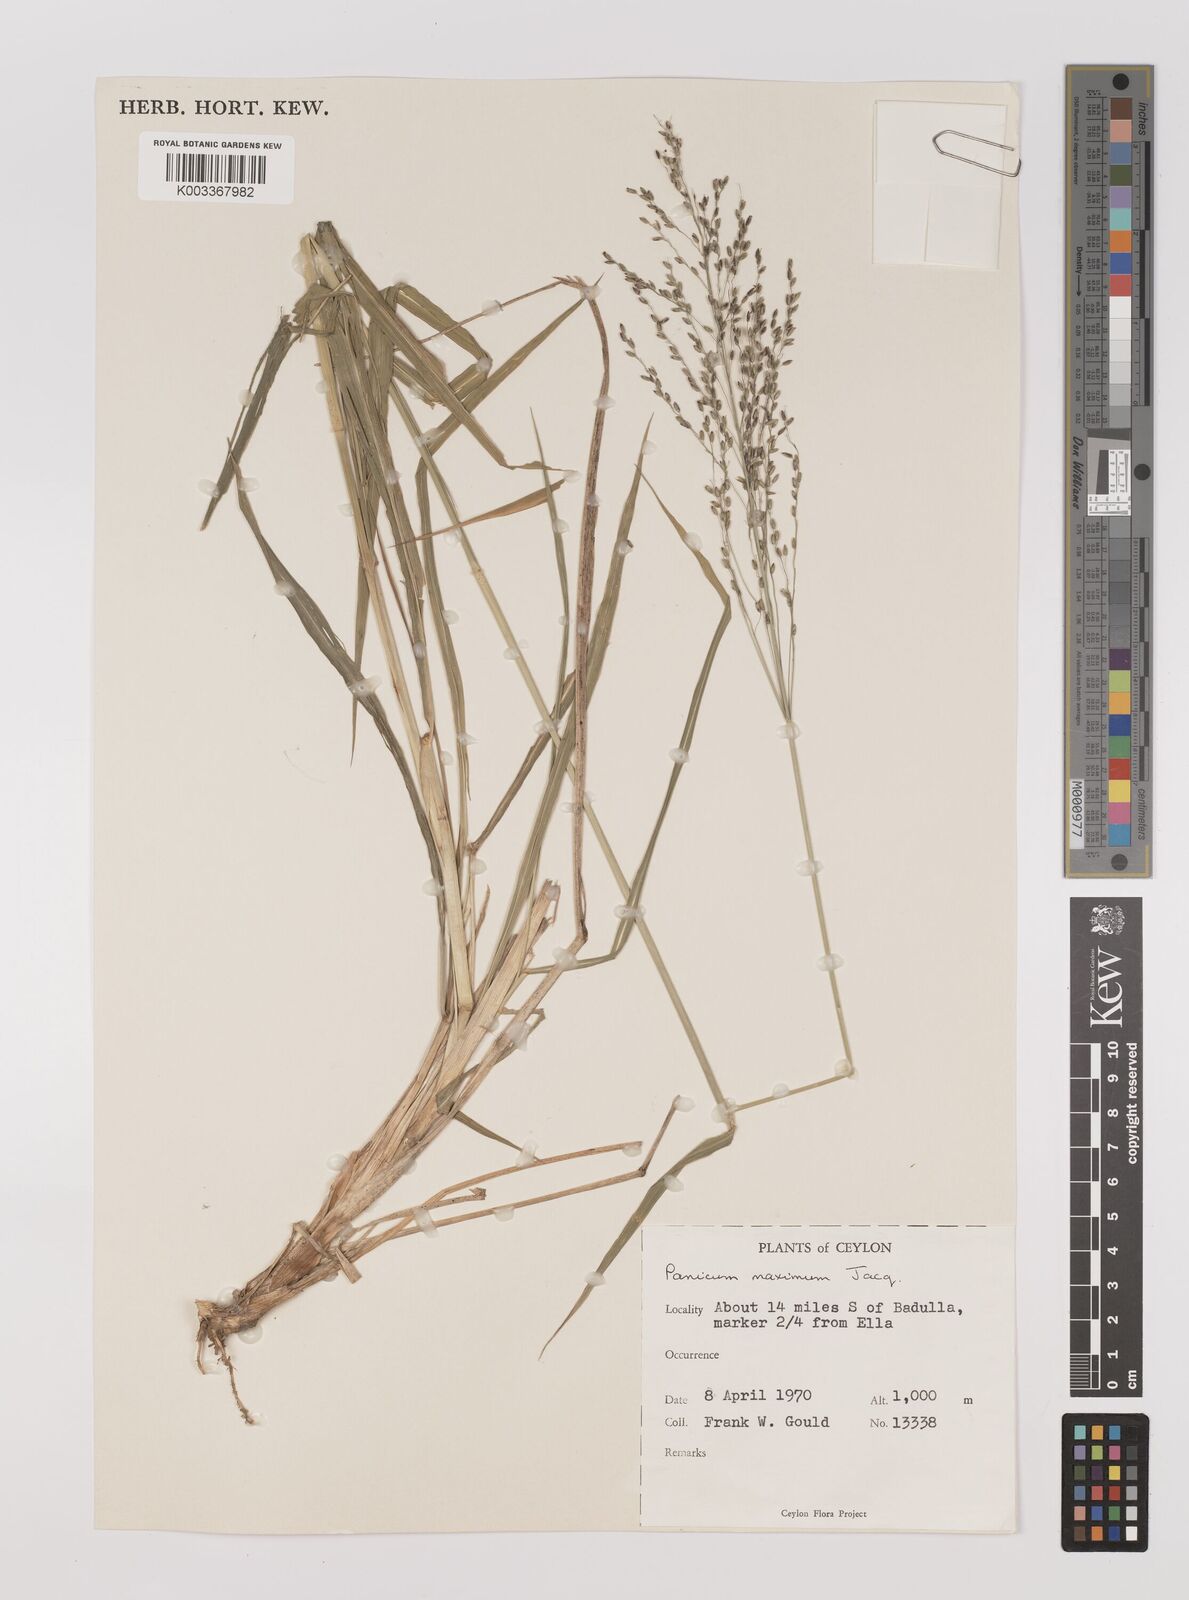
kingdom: Plantae
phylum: Tracheophyta
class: Liliopsida
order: Poales
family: Poaceae
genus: Megathyrsus
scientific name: Megathyrsus maximus
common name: Guineagrass
